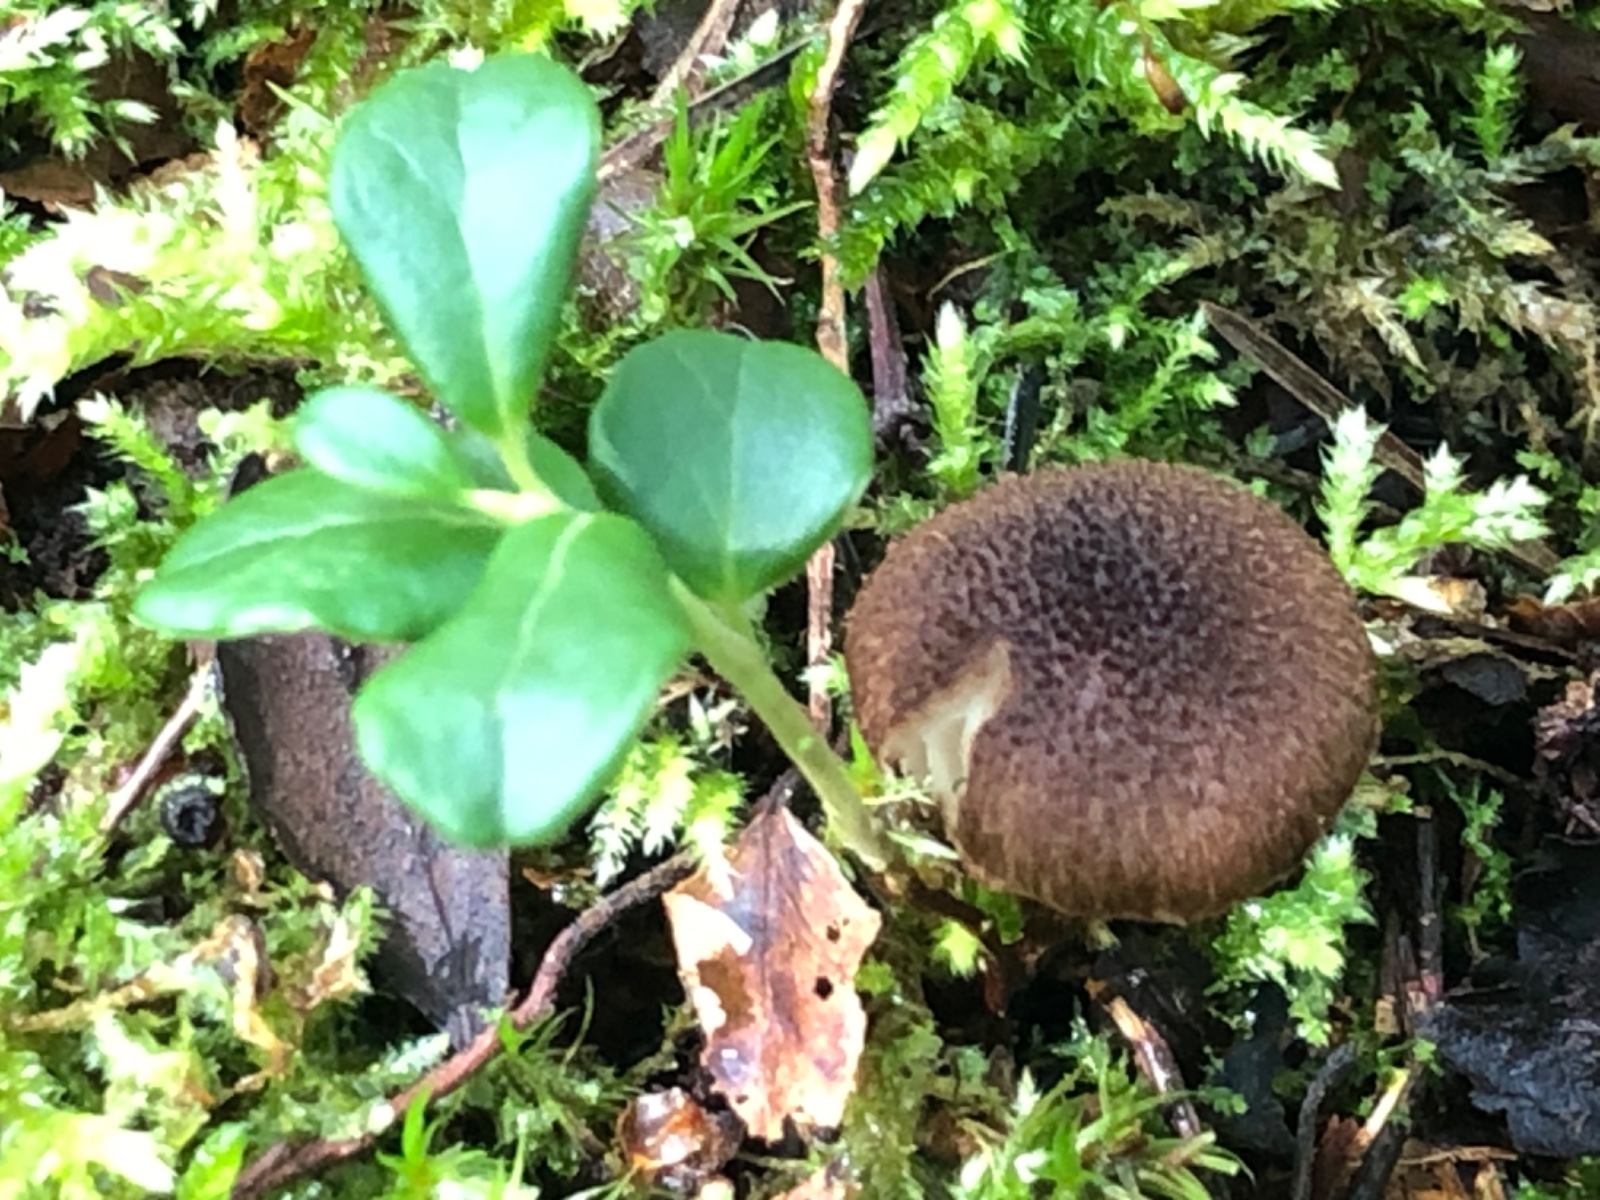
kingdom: Fungi
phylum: Basidiomycota
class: Agaricomycetes
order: Agaricales
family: Inocybaceae
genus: Inocybe
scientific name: Inocybe
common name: trævlhat
